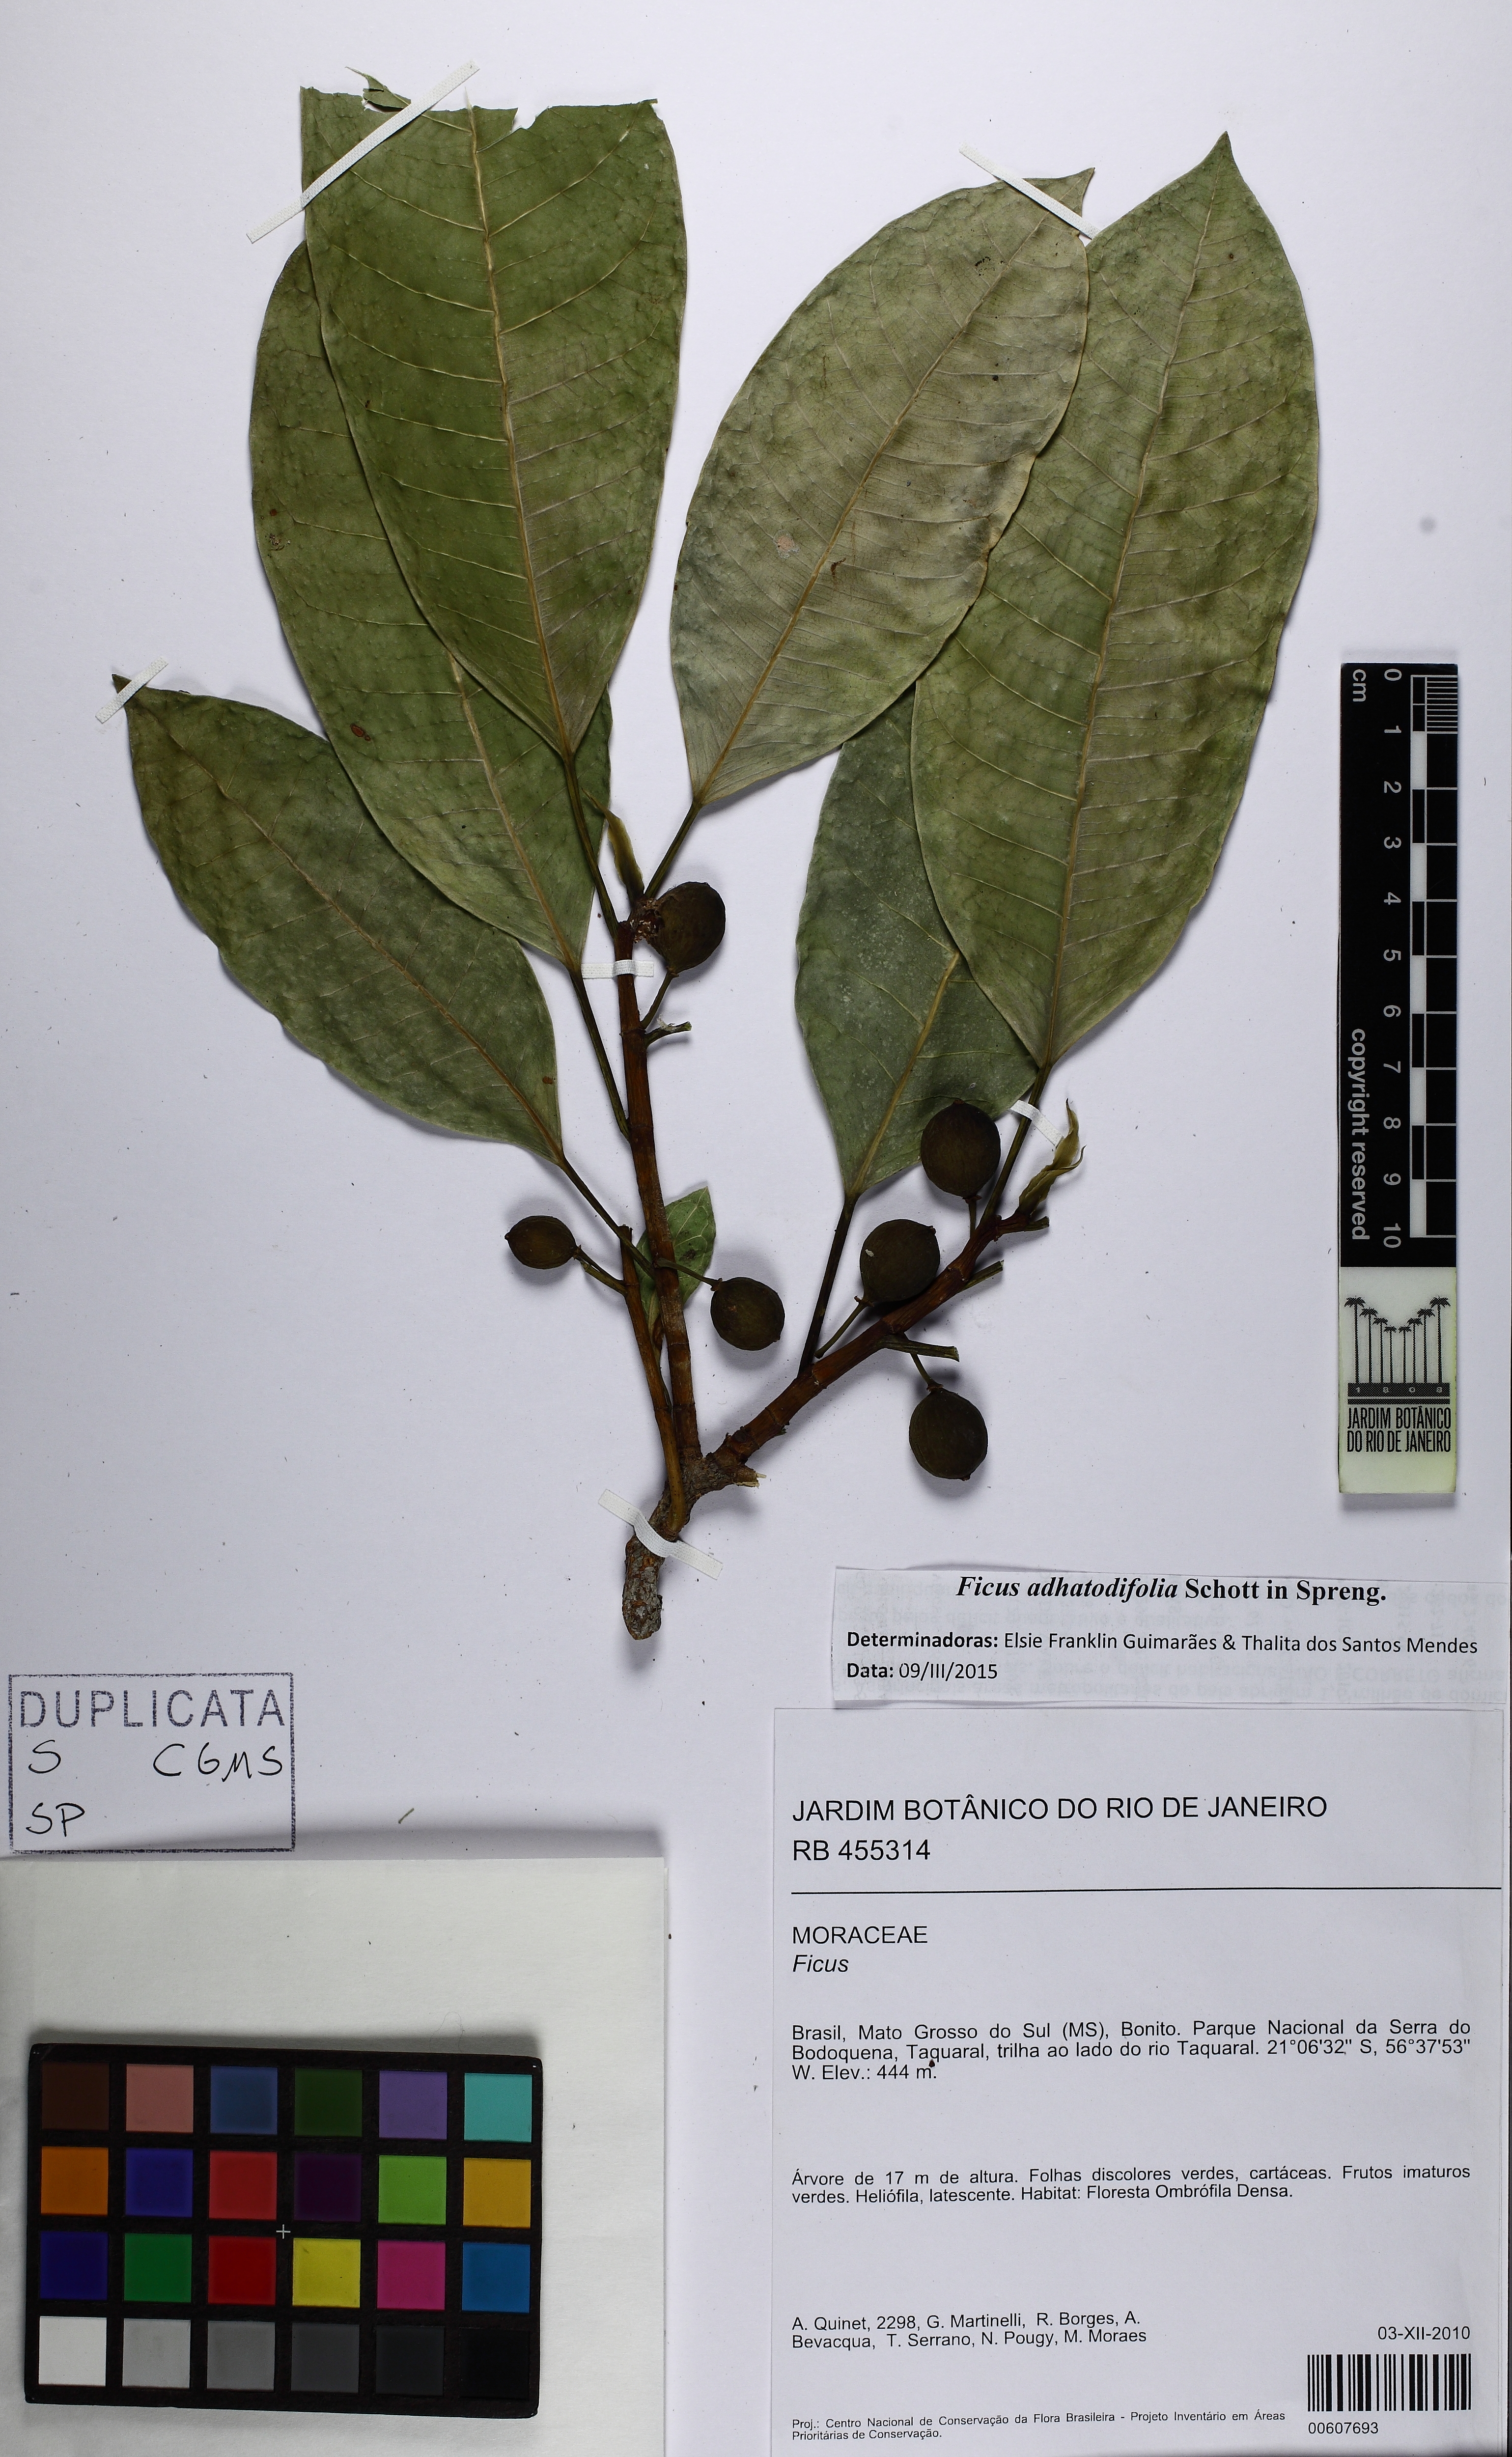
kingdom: Plantae
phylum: Tracheophyta
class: Magnoliopsida
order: Rosales
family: Moraceae
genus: Ficus
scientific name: Ficus adhatodifolia
